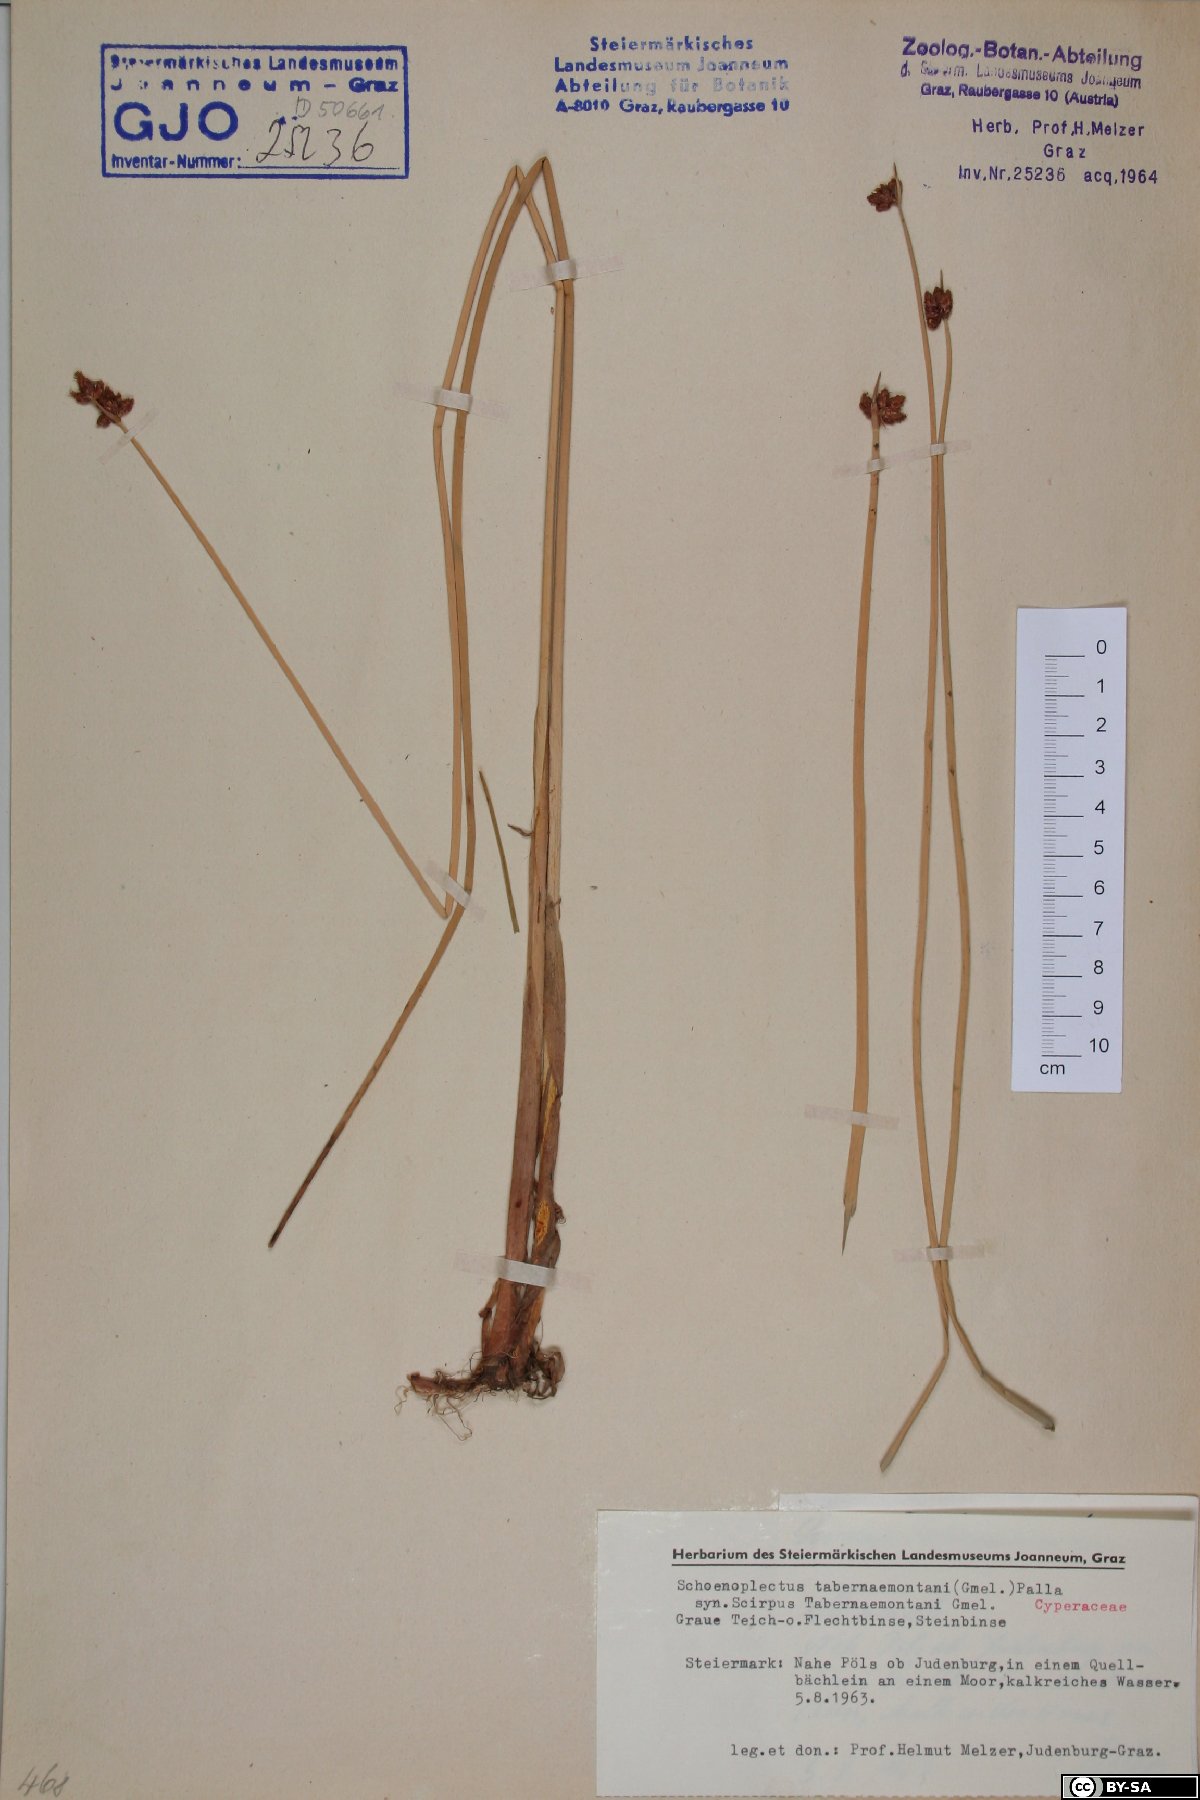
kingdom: Plantae
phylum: Tracheophyta
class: Liliopsida
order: Poales
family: Cyperaceae
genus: Schoenoplectus
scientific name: Schoenoplectus tabernaemontani
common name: Grey club-rush
